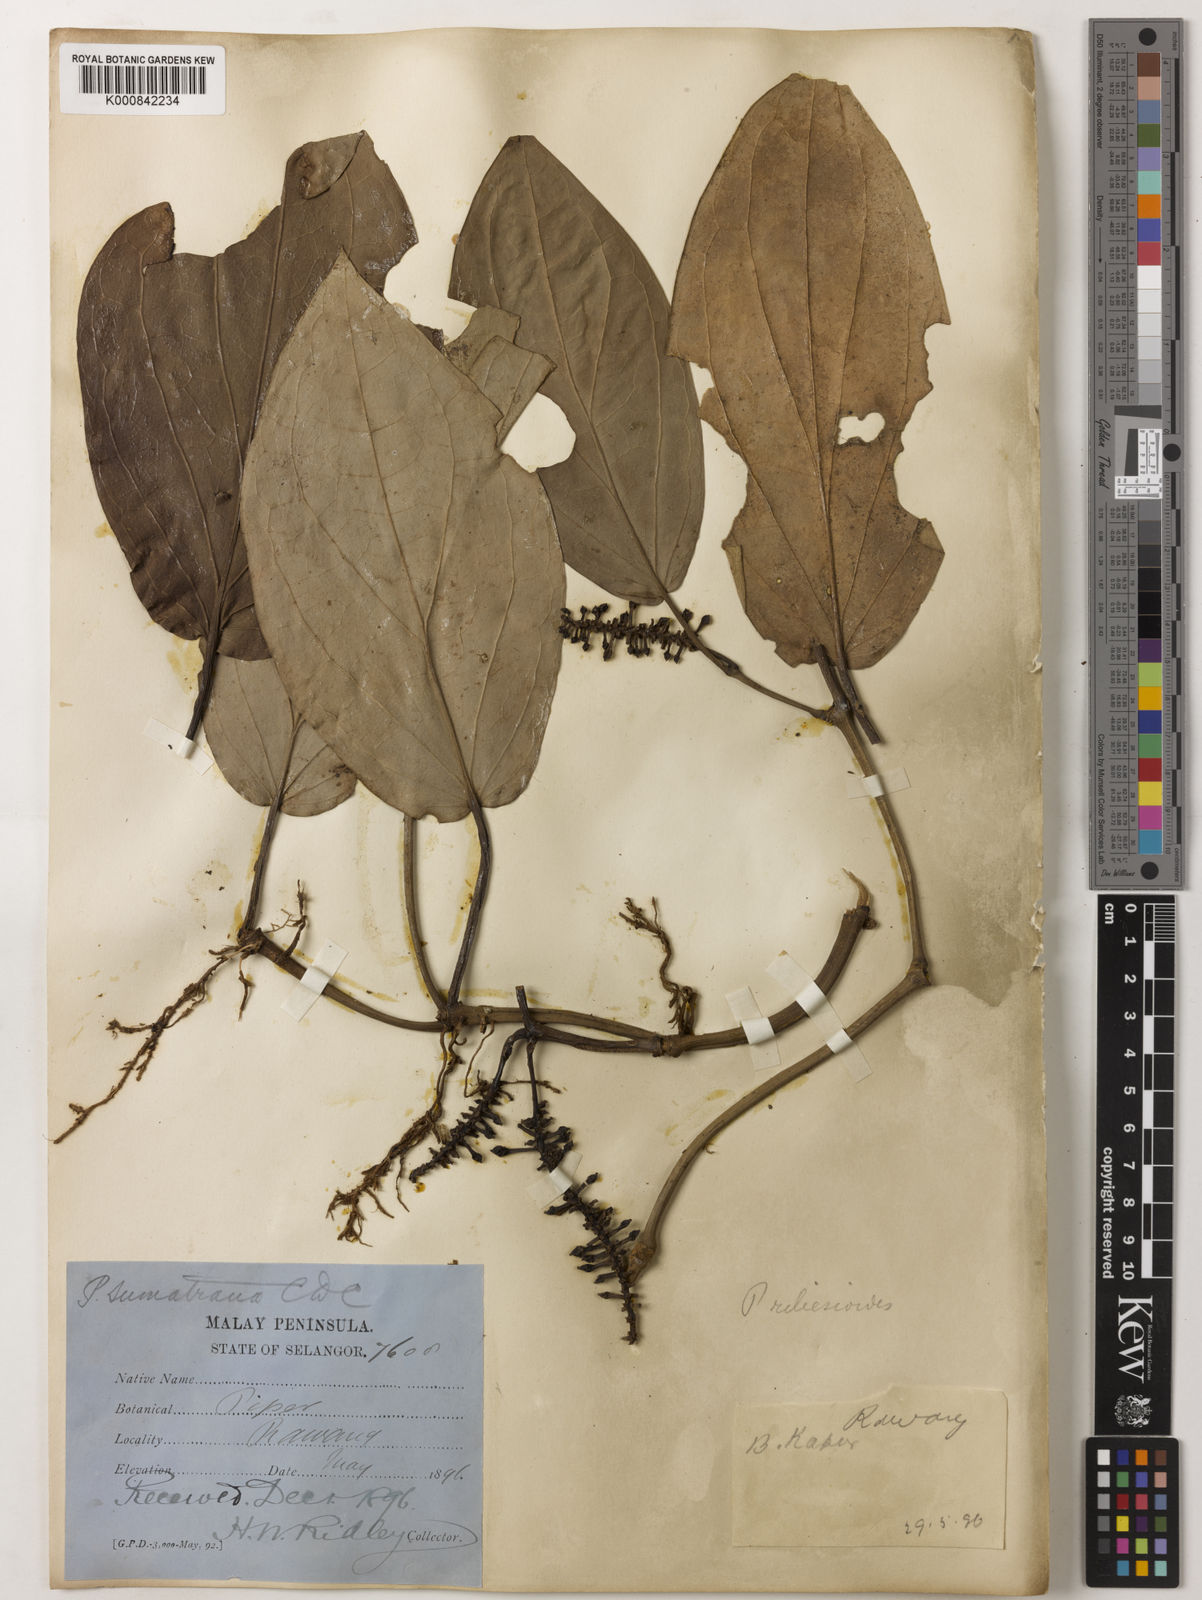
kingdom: Plantae
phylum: Tracheophyta
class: Magnoliopsida
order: Piperales
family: Piperaceae
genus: Piper
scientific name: Piper ribesioides
